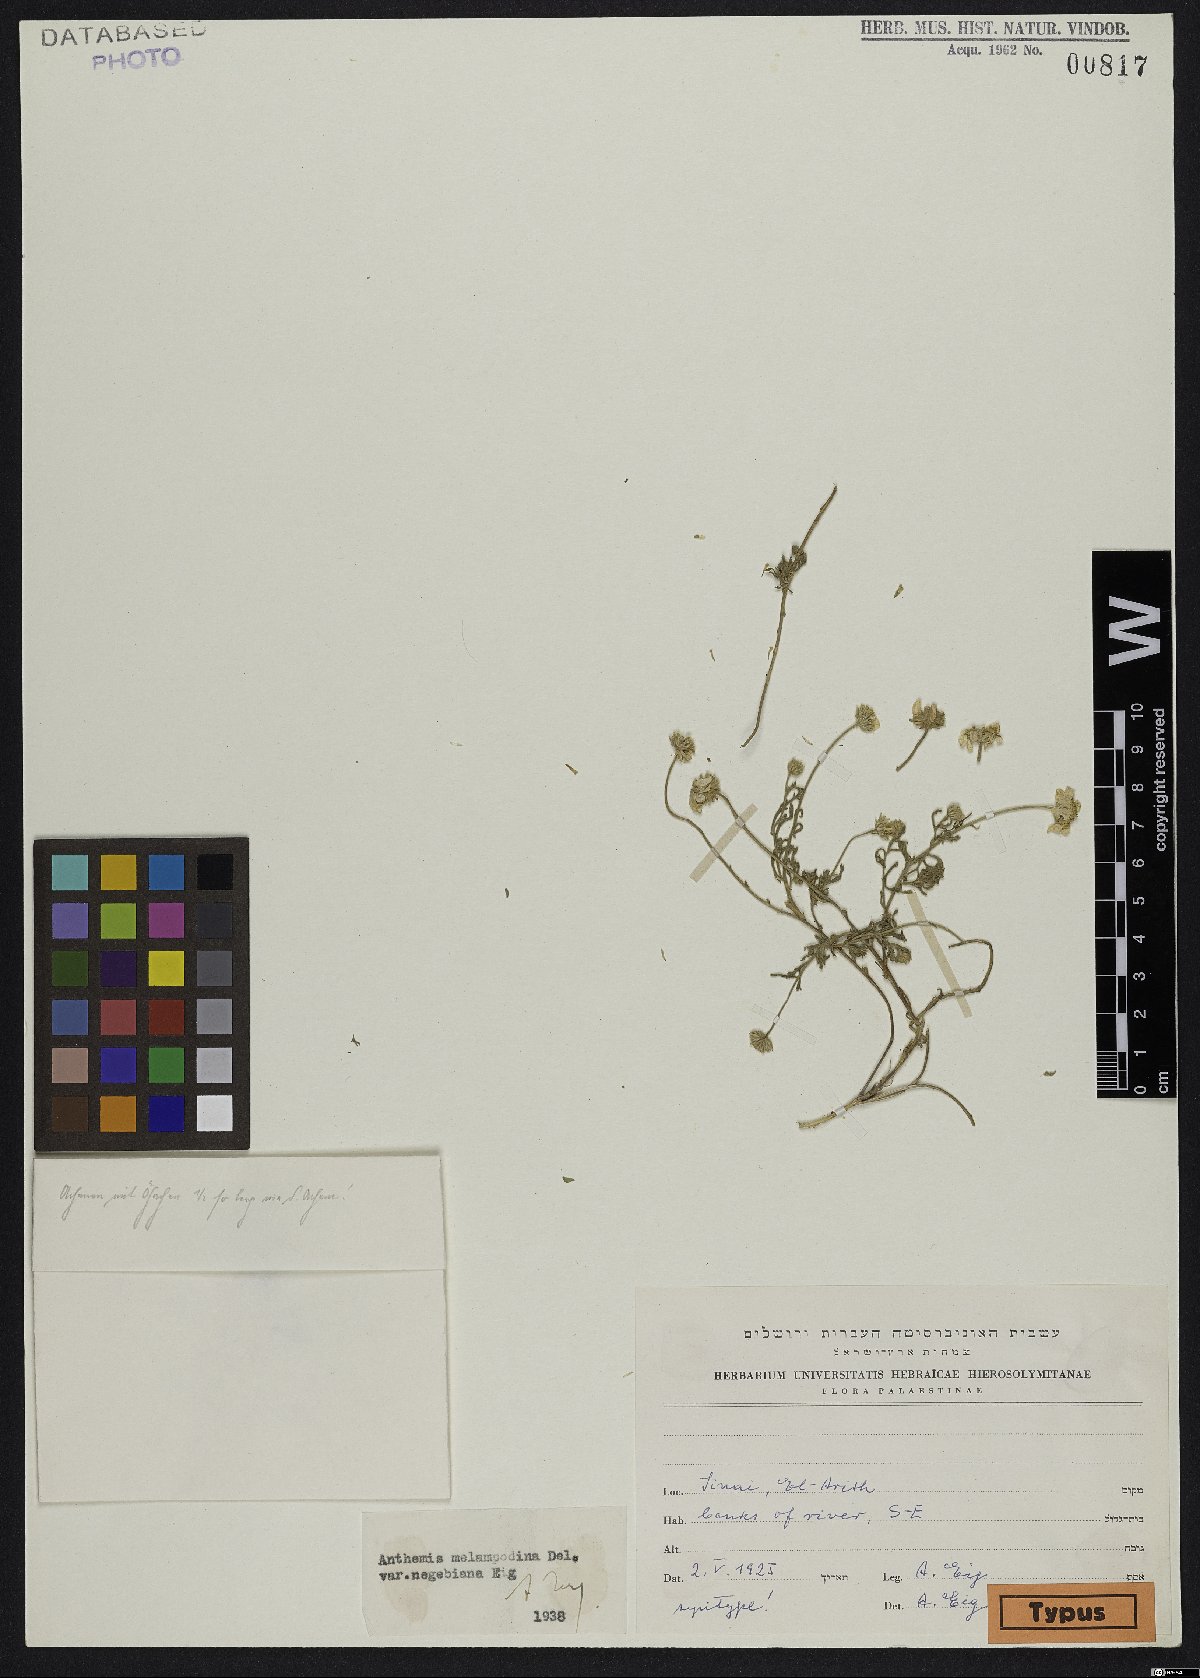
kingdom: Plantae
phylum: Tracheophyta
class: Magnoliopsida
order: Asterales
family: Asteraceae
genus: Anthemis
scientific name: Anthemis melampodina
